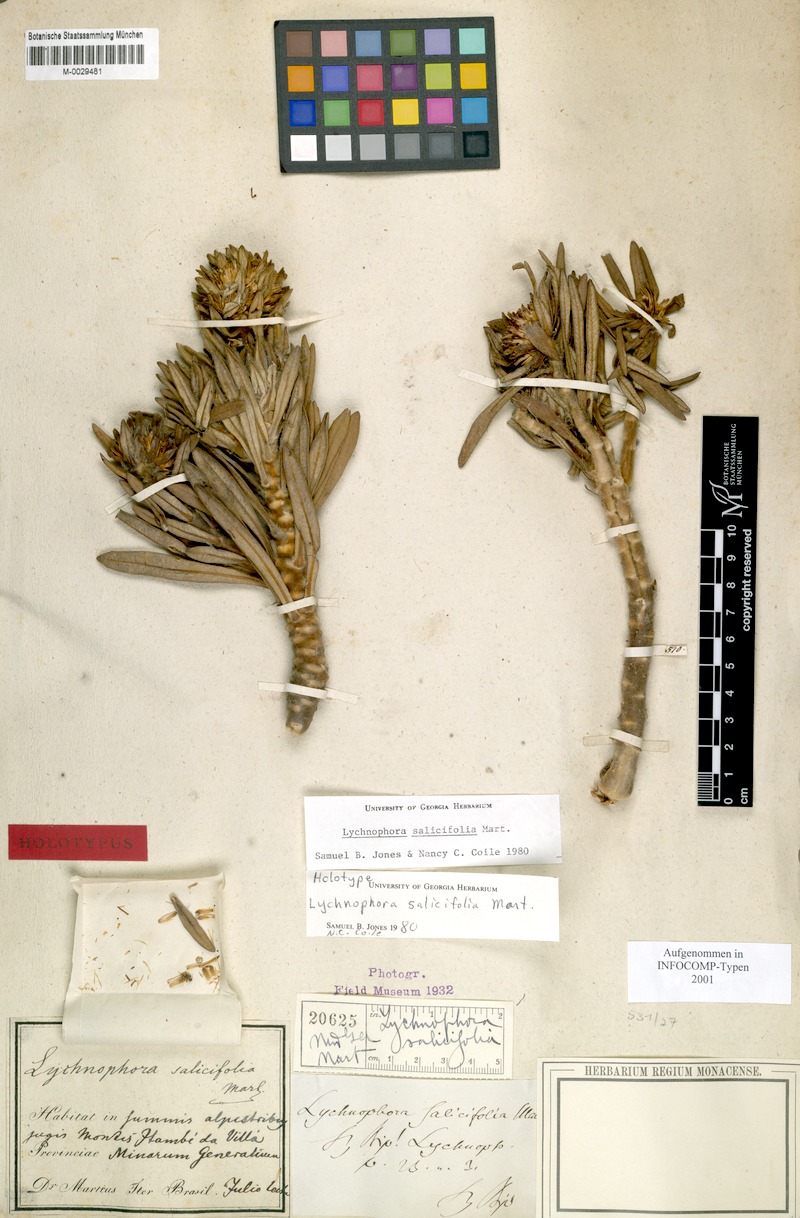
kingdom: Plantae
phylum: Tracheophyta
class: Magnoliopsida
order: Asterales
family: Asteraceae
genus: Lychnophora
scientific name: Lychnophora salicifolia
